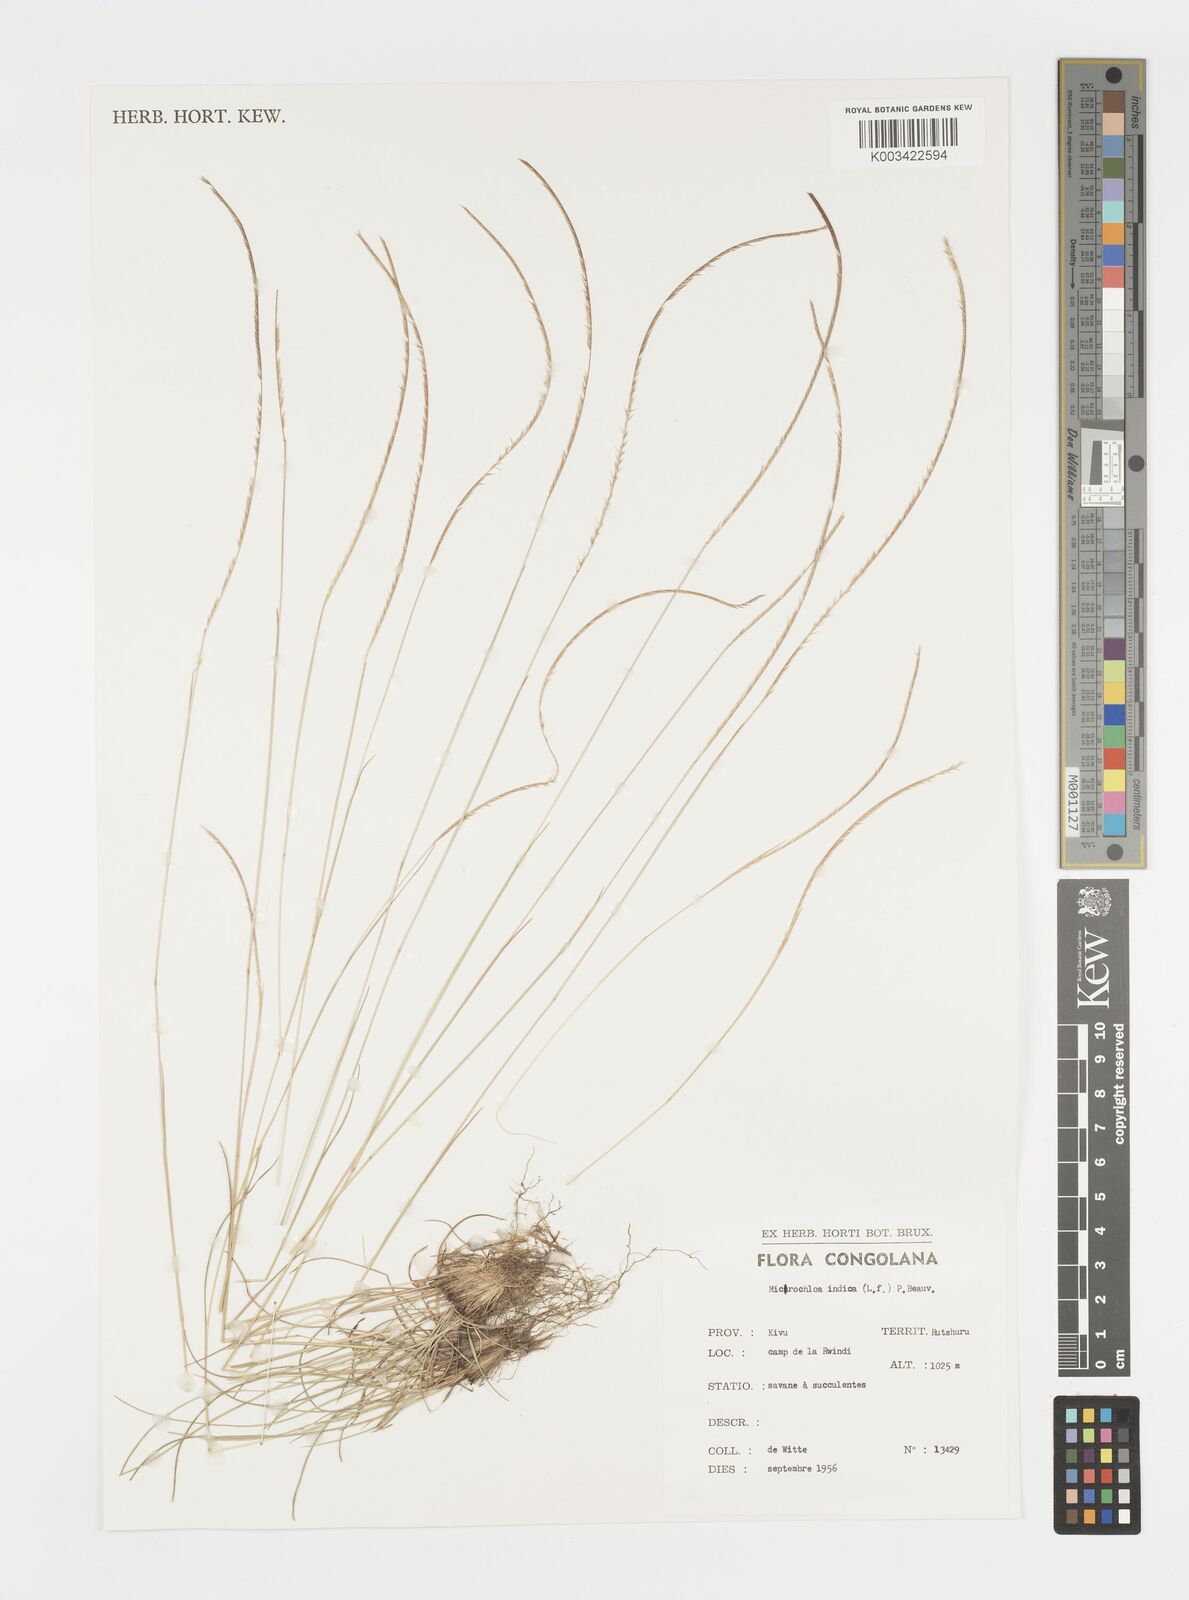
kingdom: Plantae
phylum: Tracheophyta
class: Liliopsida
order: Poales
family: Poaceae
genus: Microchloa
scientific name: Microchloa indica
